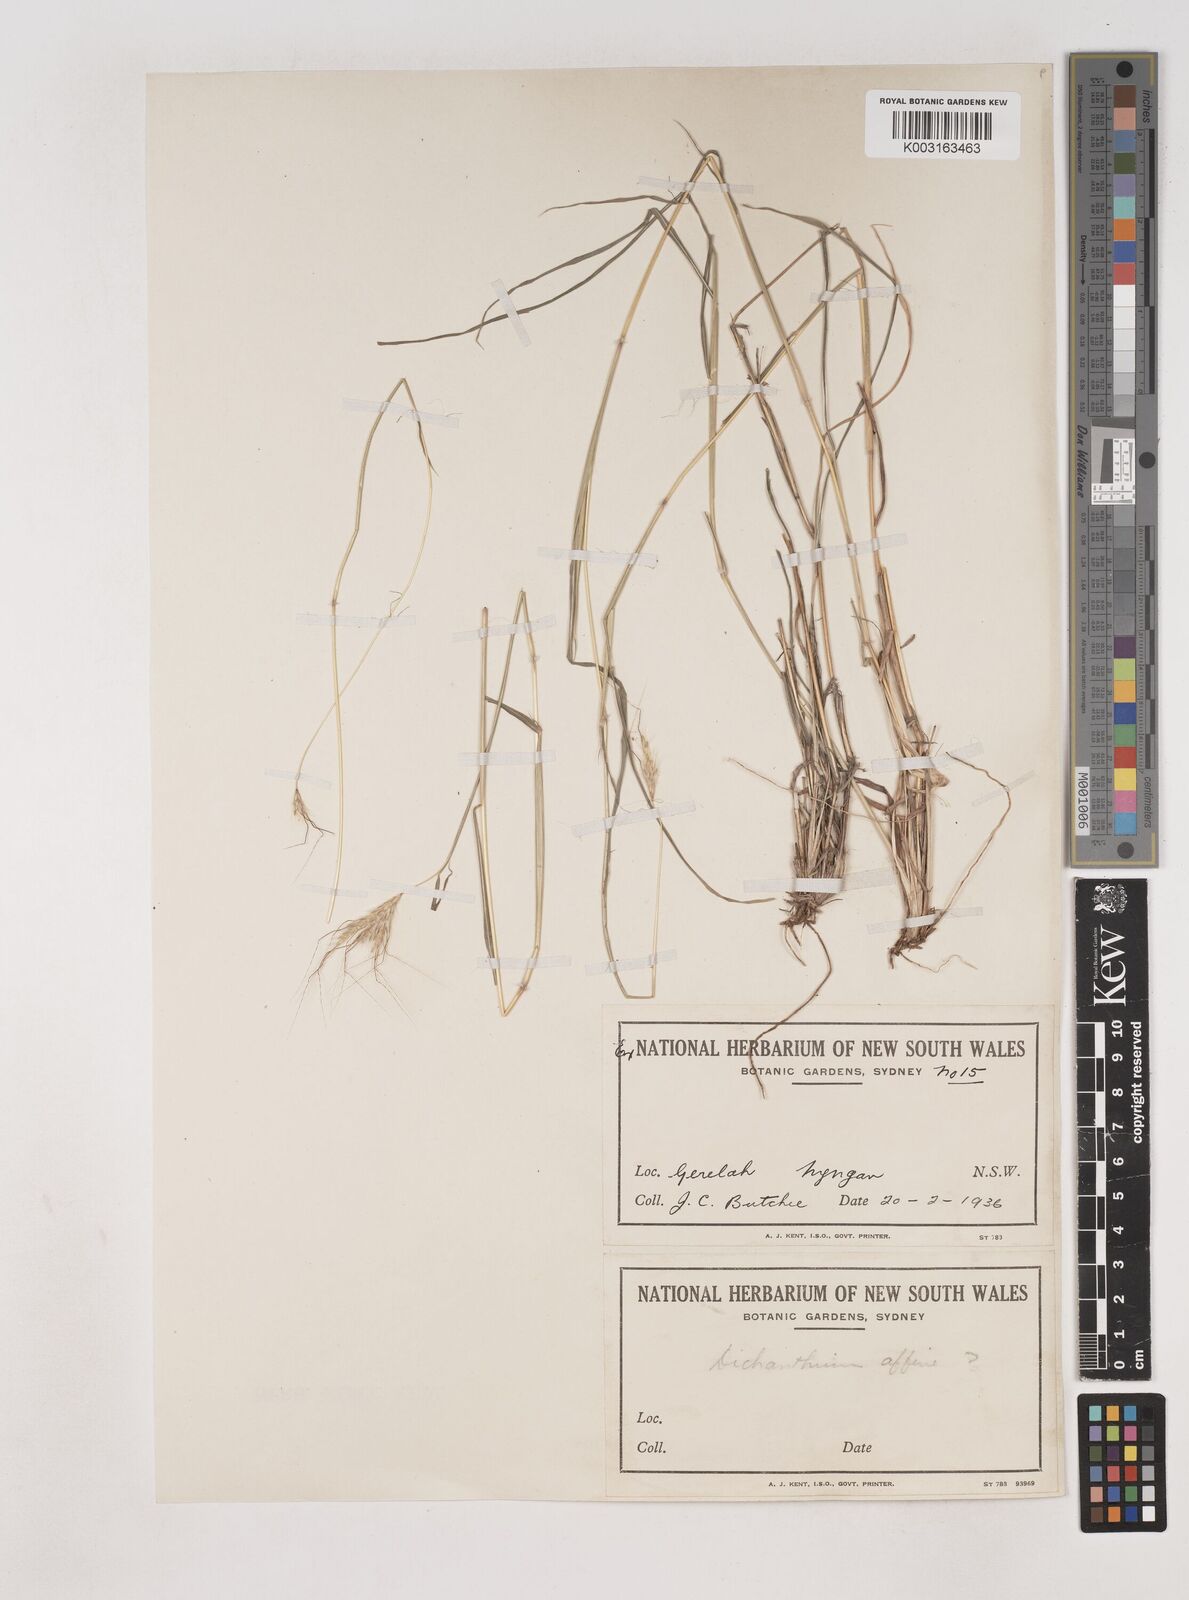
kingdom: Plantae
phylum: Tracheophyta
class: Liliopsida
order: Poales
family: Poaceae
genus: Dichanthium
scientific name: Dichanthium sericeum
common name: Silky bluestem
